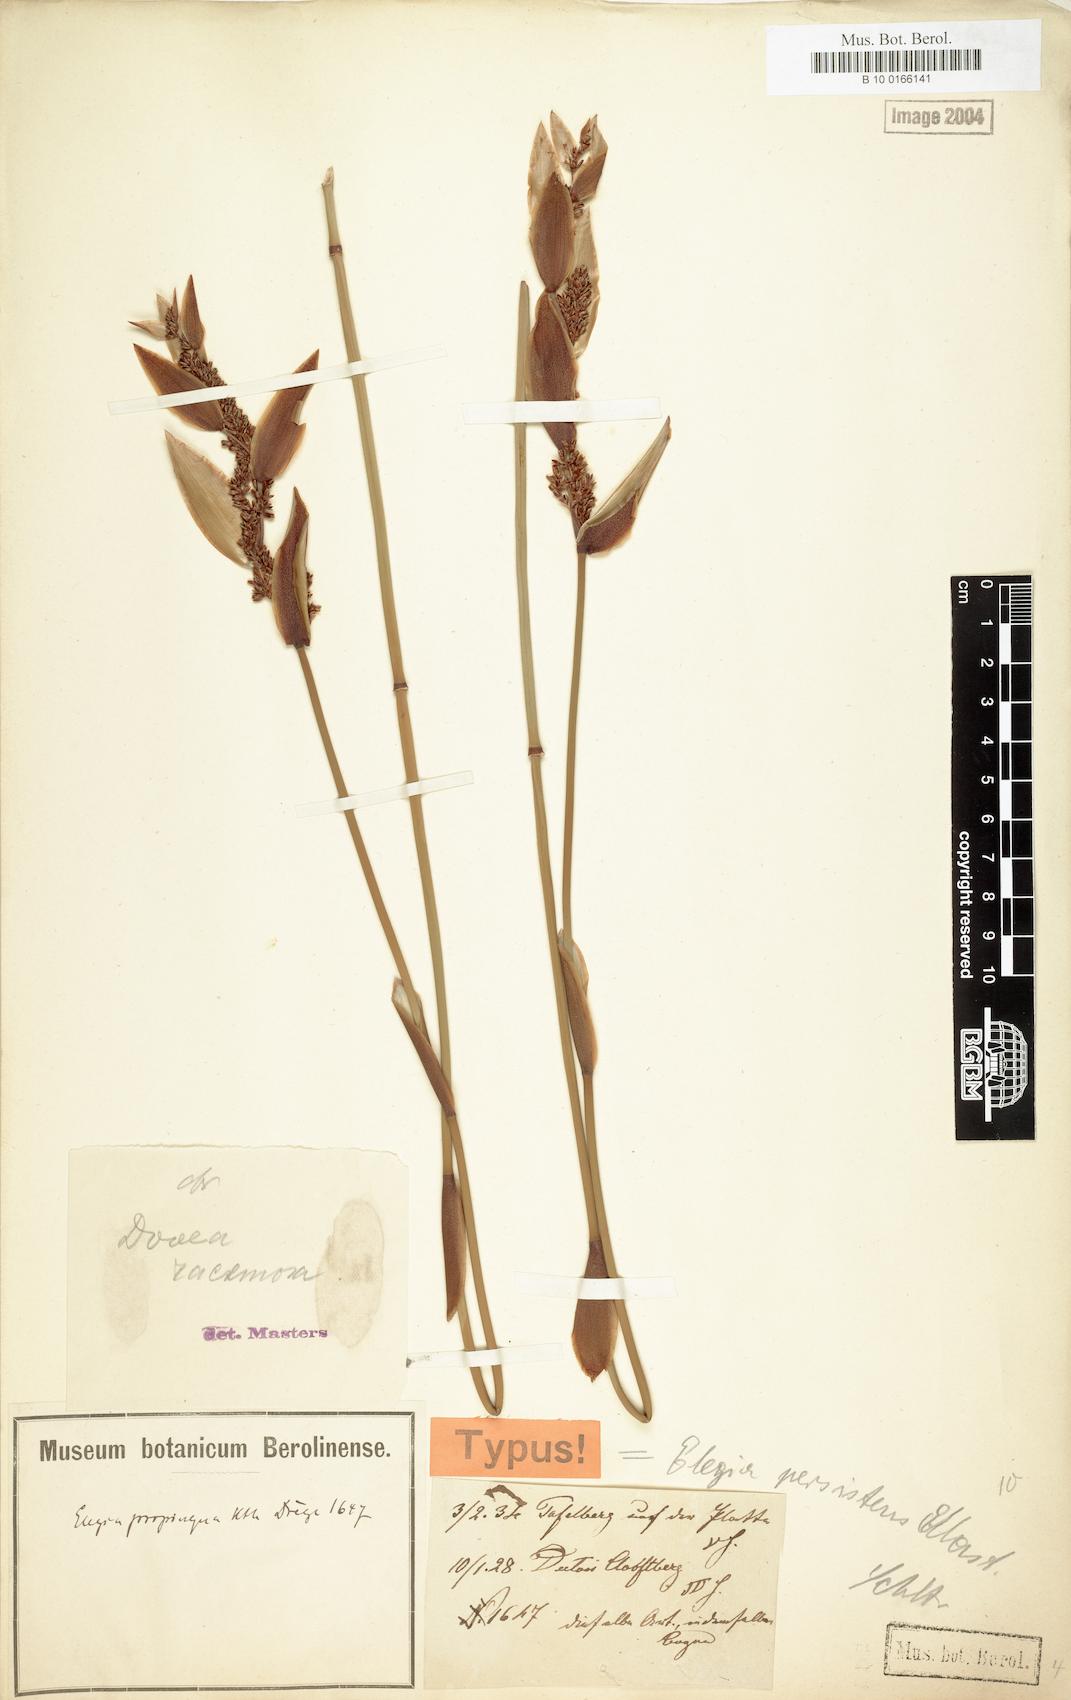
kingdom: Plantae
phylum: Tracheophyta
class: Liliopsida
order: Poales
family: Restionaceae
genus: Elegia
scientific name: Elegia racemosa
